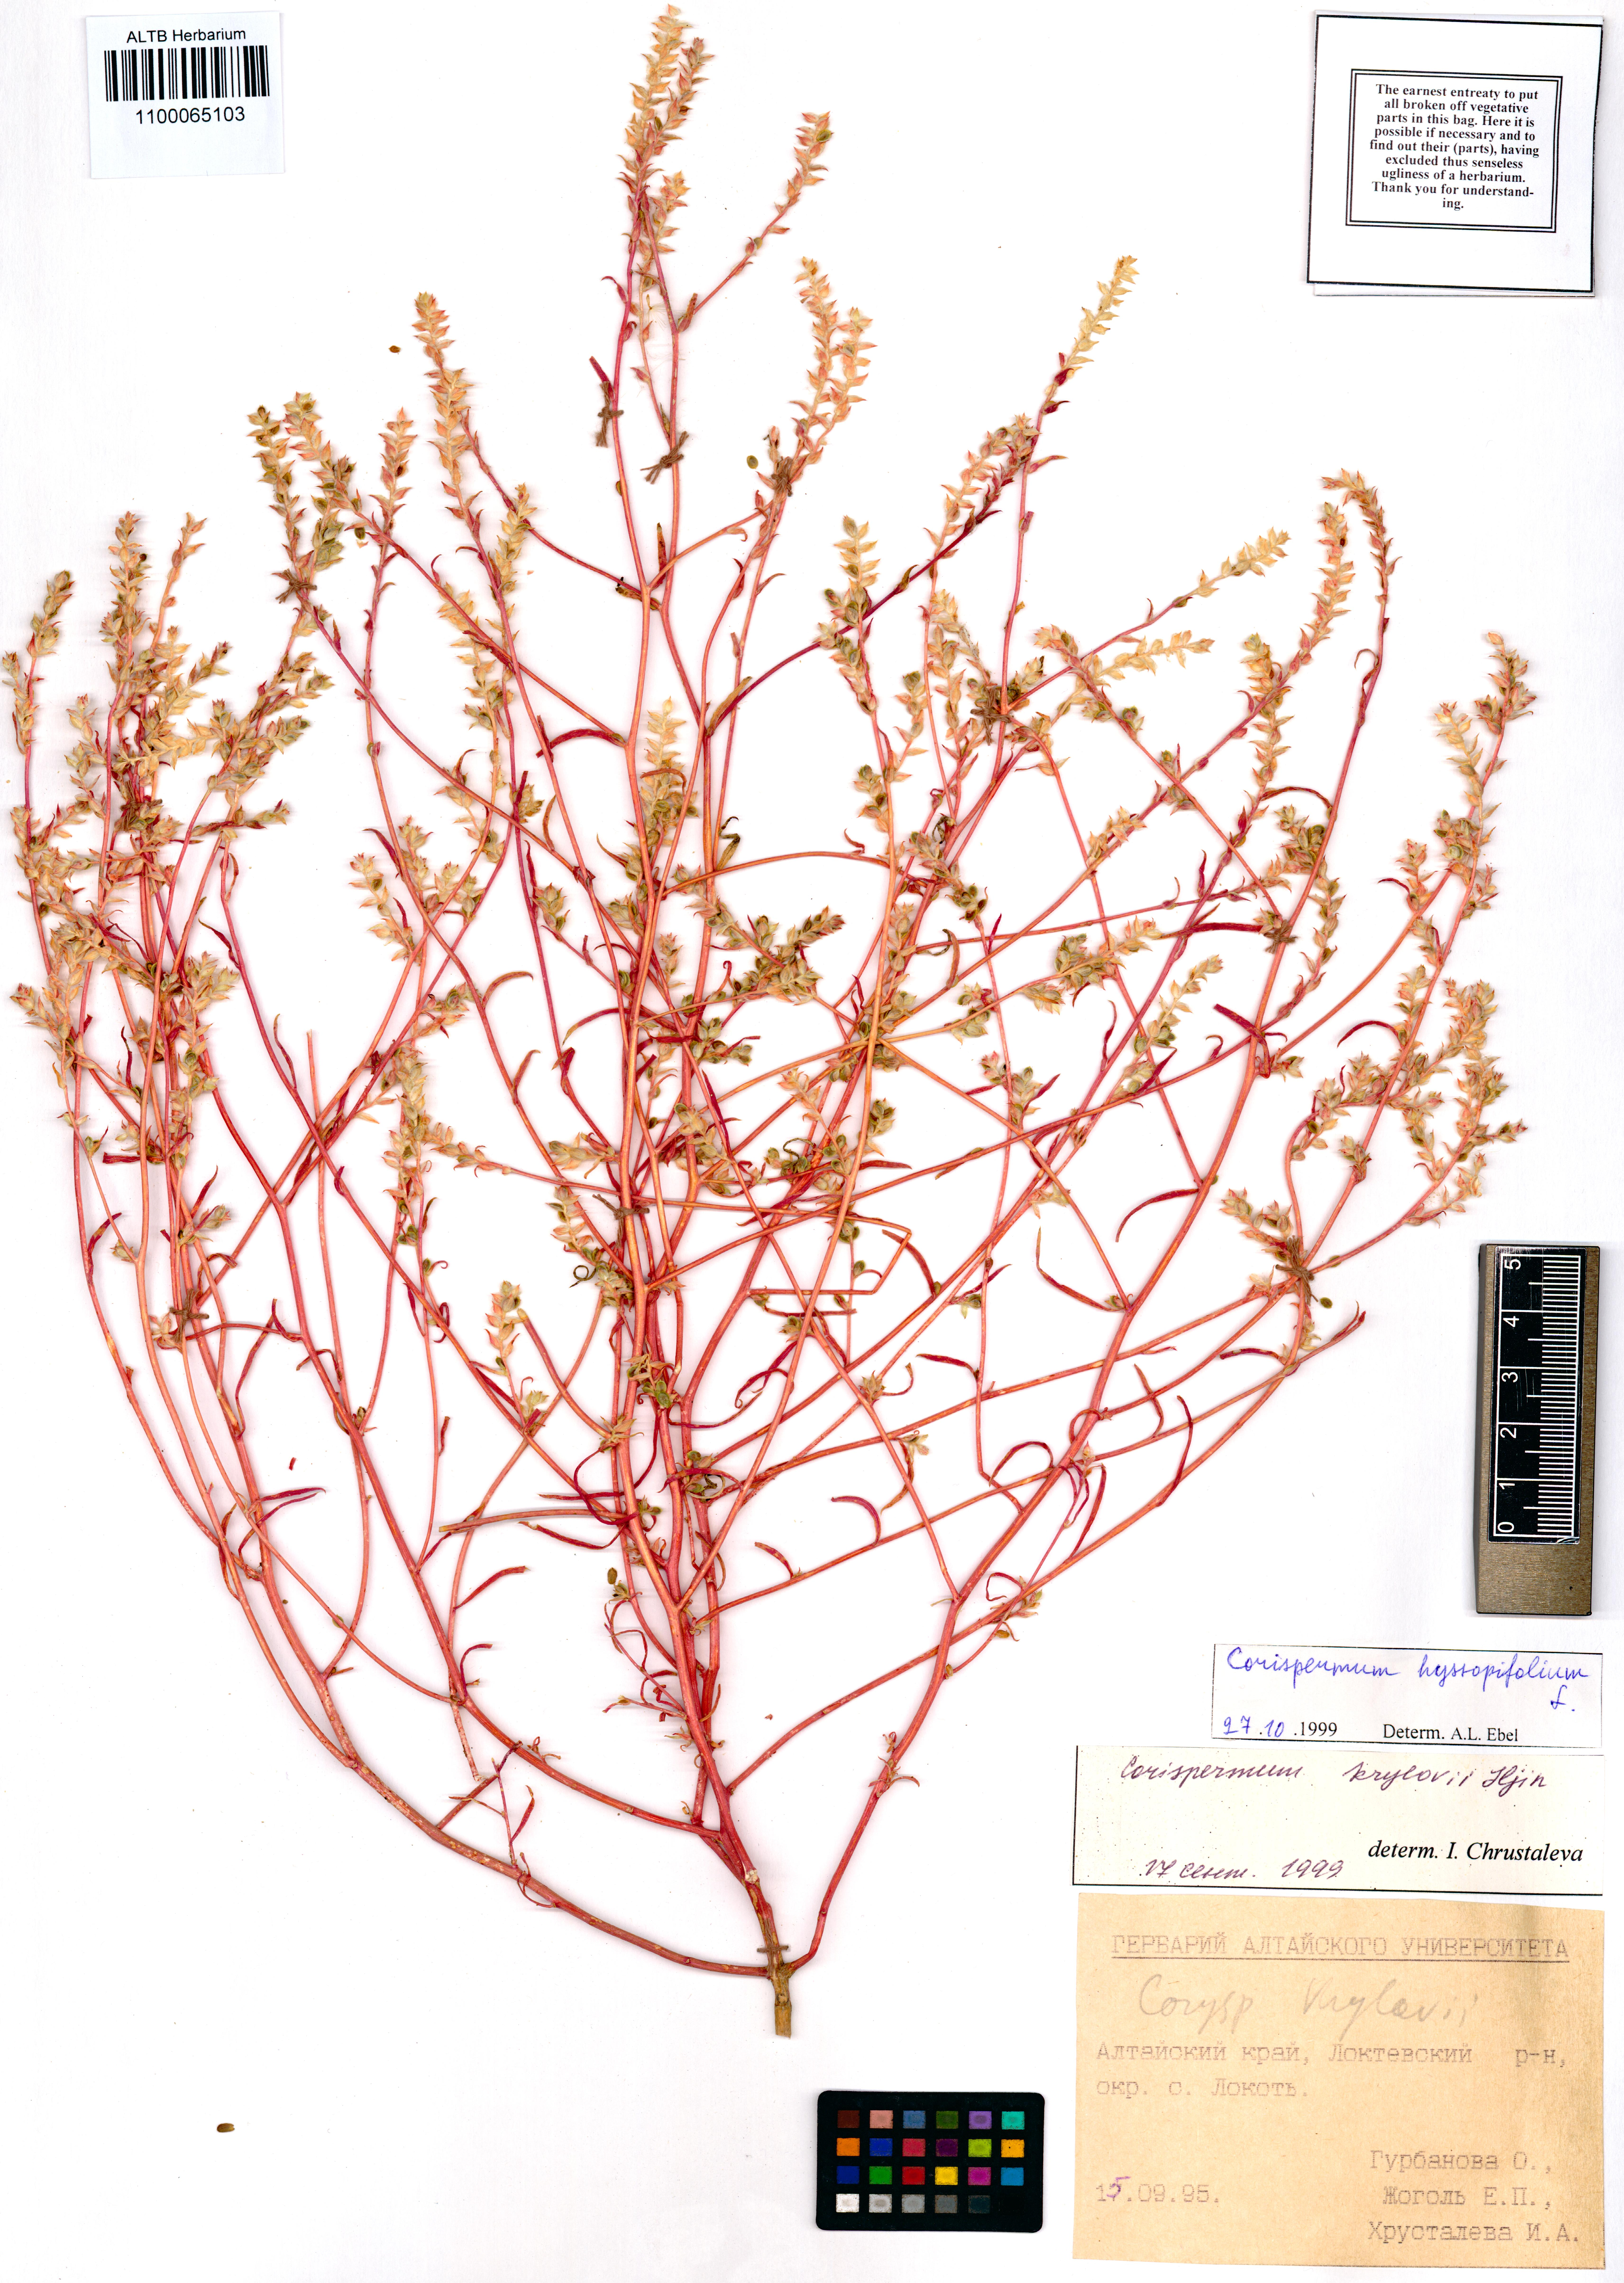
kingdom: Plantae
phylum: Tracheophyta
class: Magnoliopsida
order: Caryophyllales
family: Amaranthaceae
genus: Corispermum
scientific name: Corispermum hyssopifolium
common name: Bugseed
